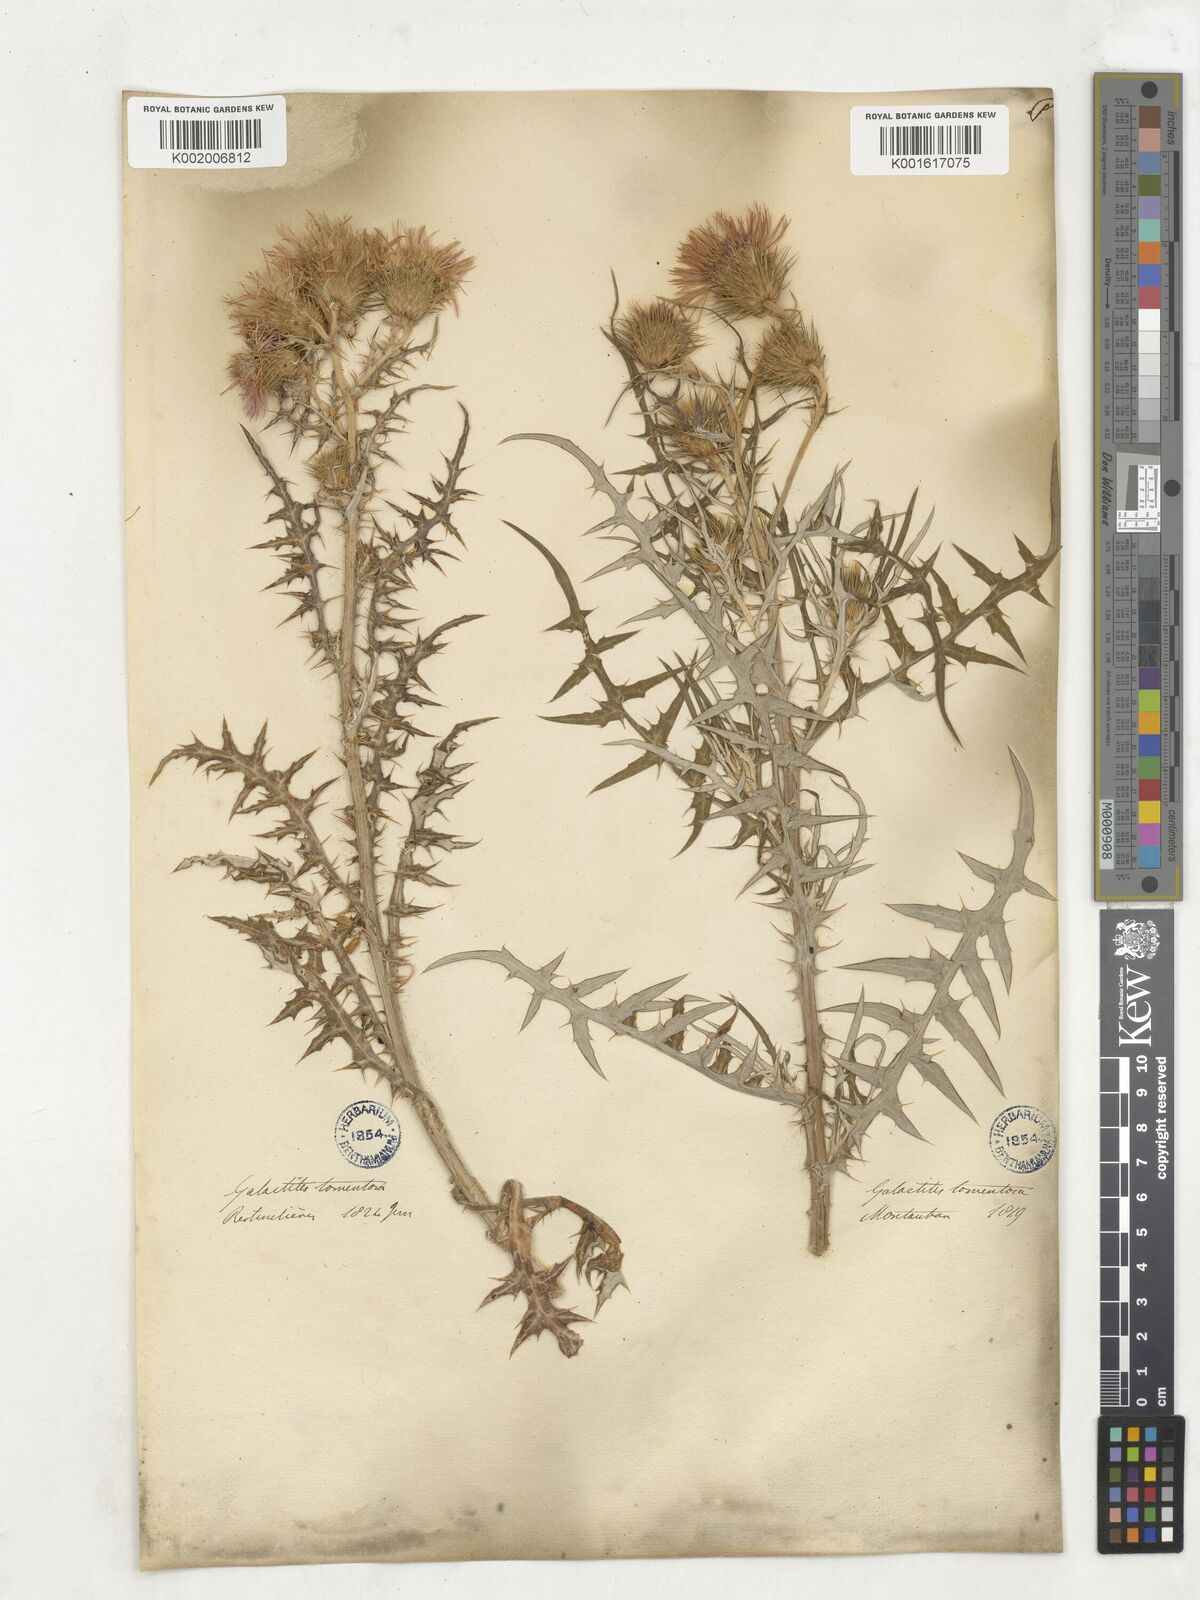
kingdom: Plantae
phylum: Tracheophyta
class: Magnoliopsida
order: Asterales
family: Asteraceae
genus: Galactites
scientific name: Galactites
